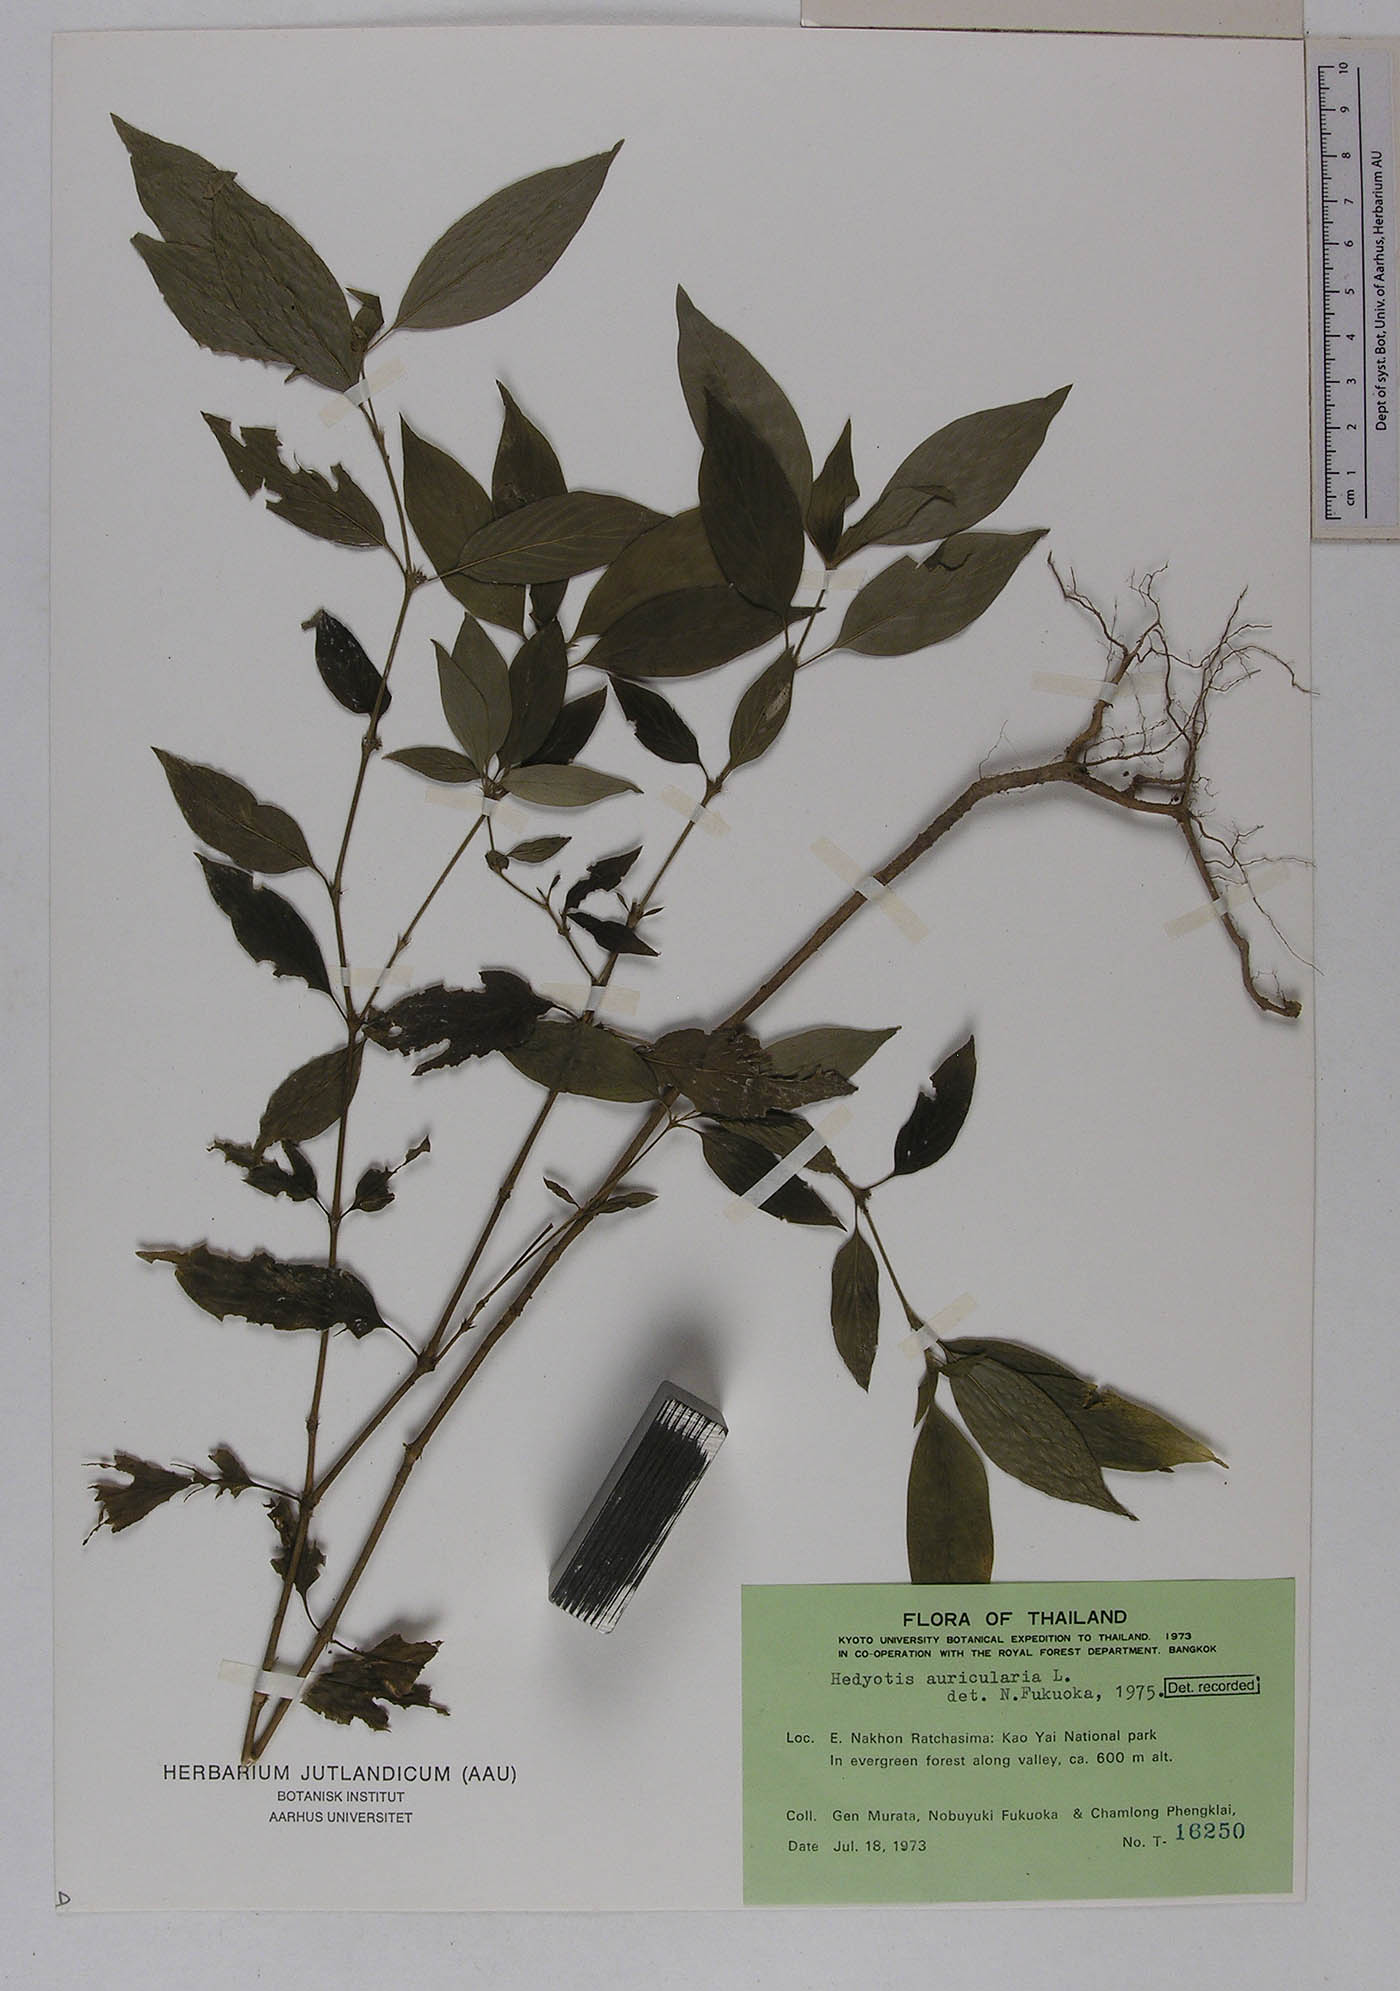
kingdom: Plantae
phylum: Tracheophyta
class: Magnoliopsida
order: Gentianales
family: Rubiaceae
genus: Exallage
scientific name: Exallage auricularia
